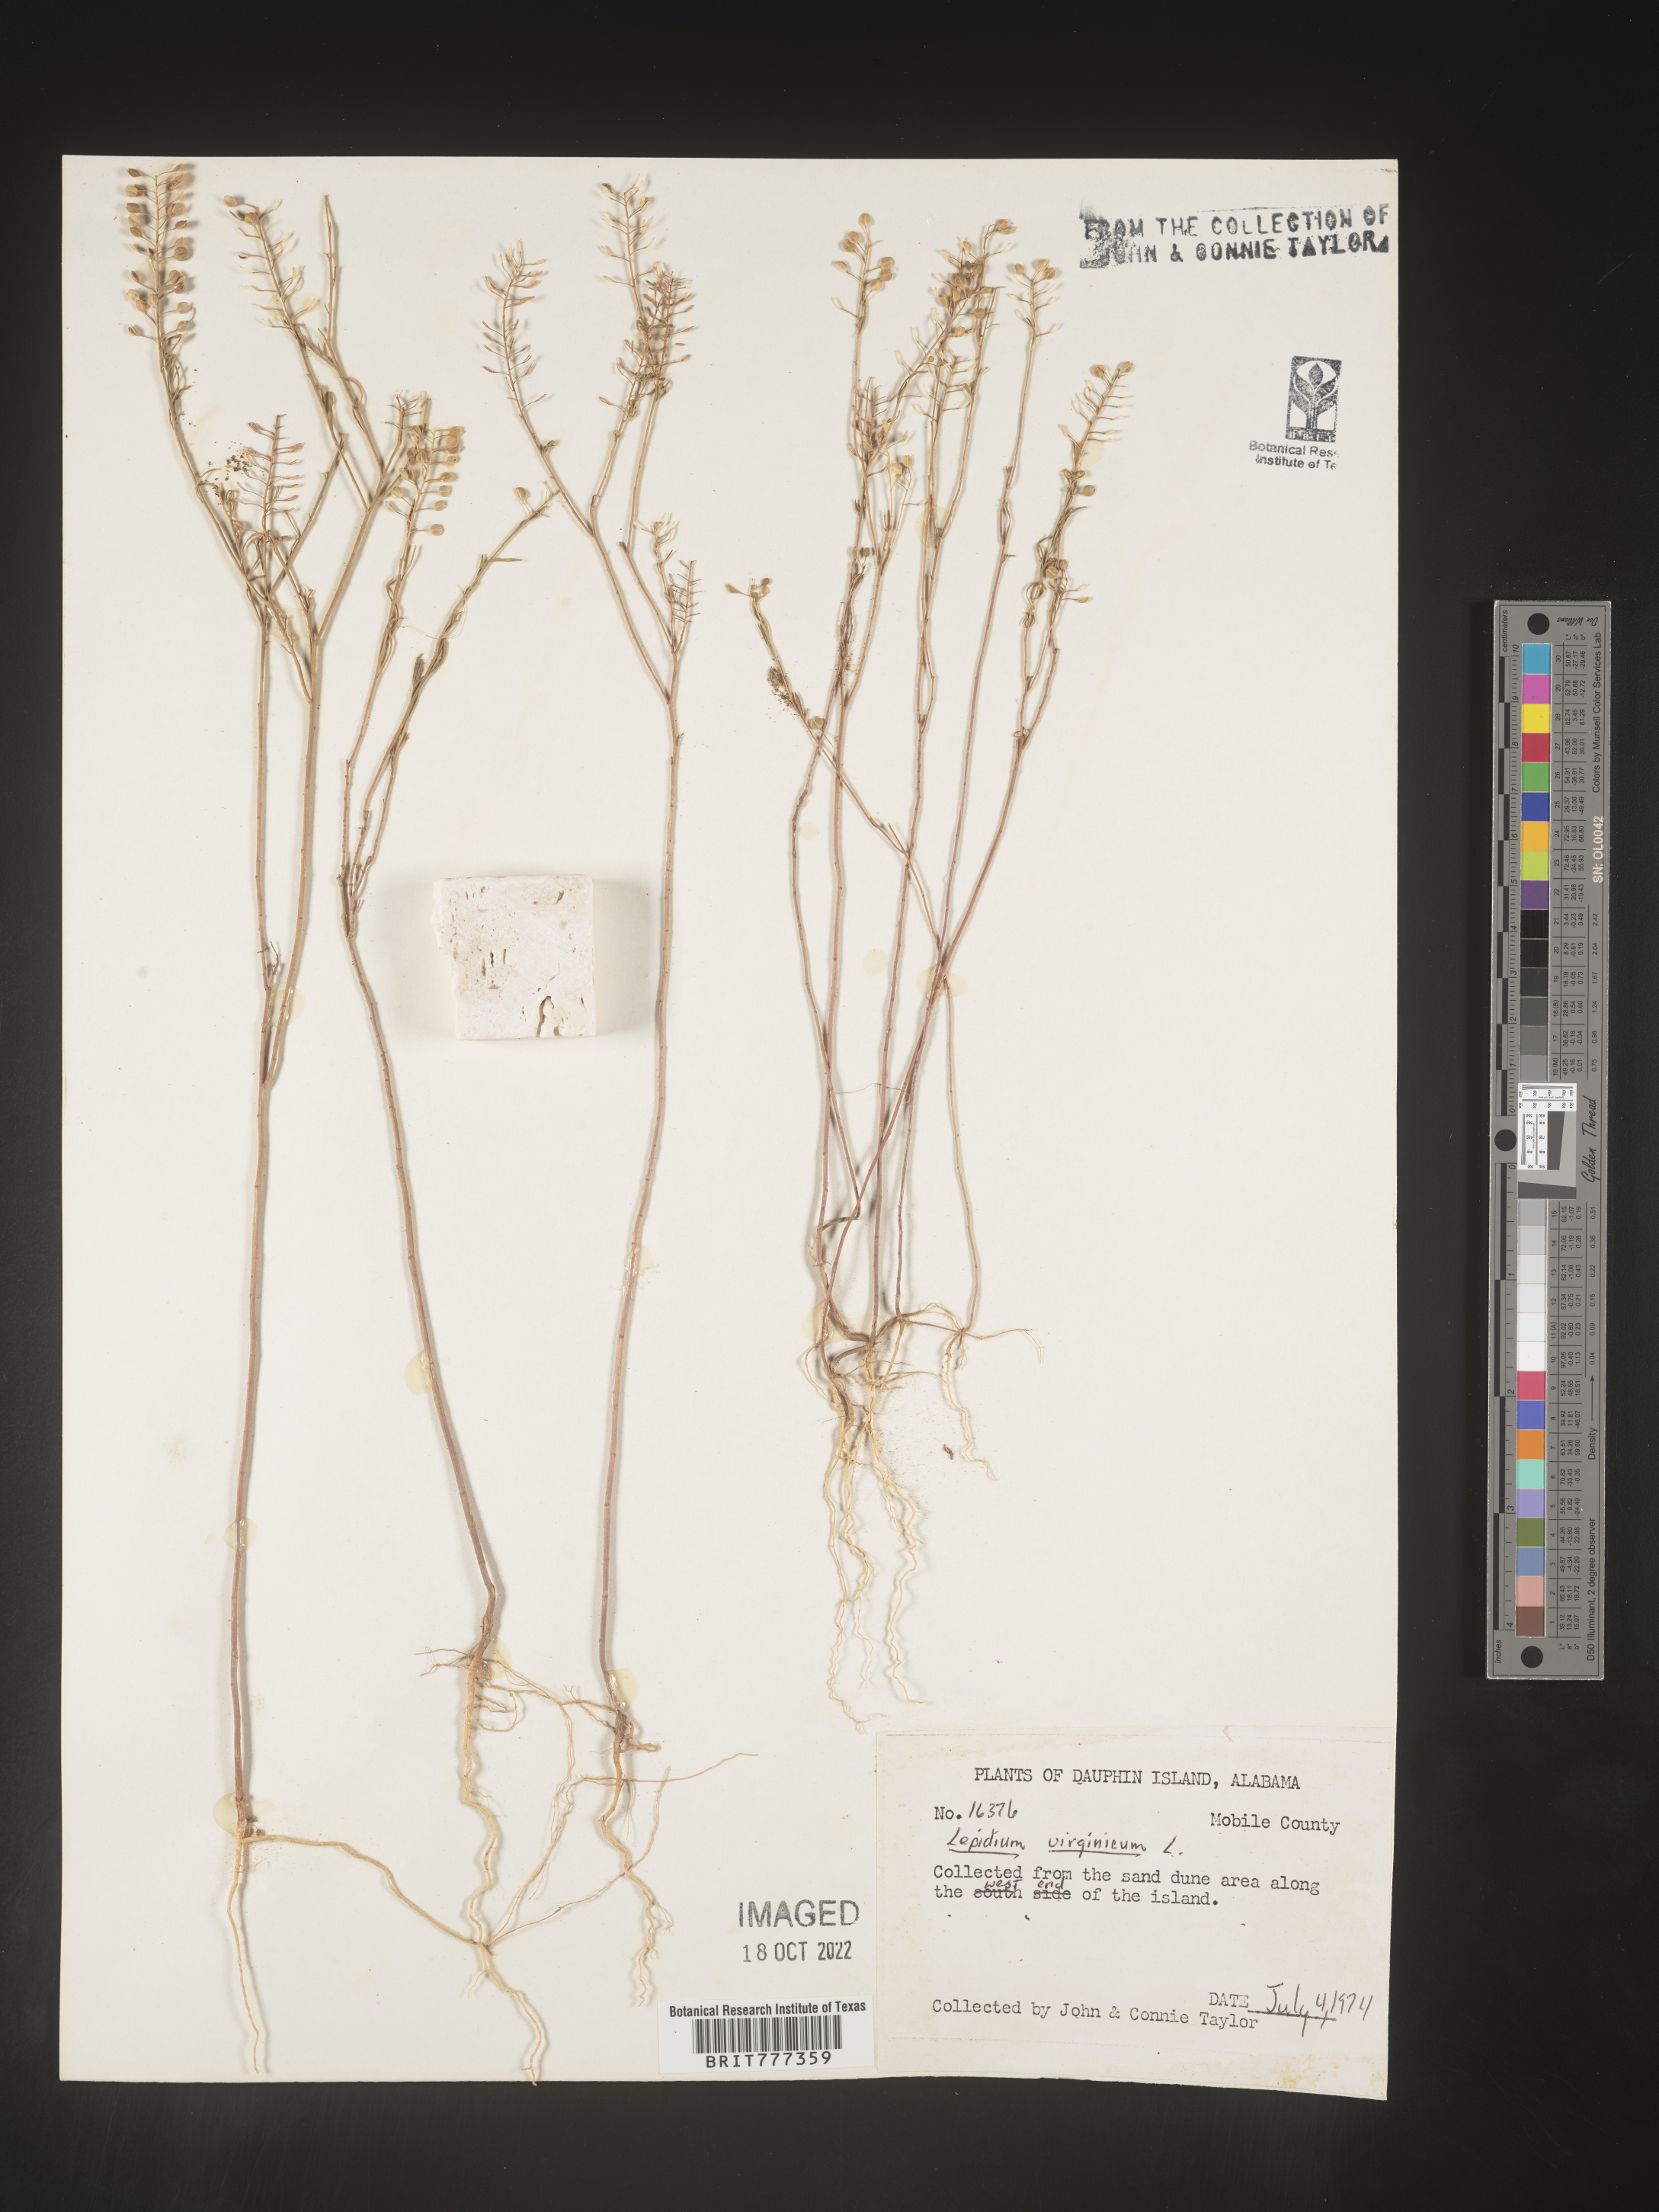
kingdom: Plantae
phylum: Tracheophyta
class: Magnoliopsida
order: Brassicales
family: Brassicaceae
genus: Lepidium
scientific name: Lepidium virginicum
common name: Least pepperwort
